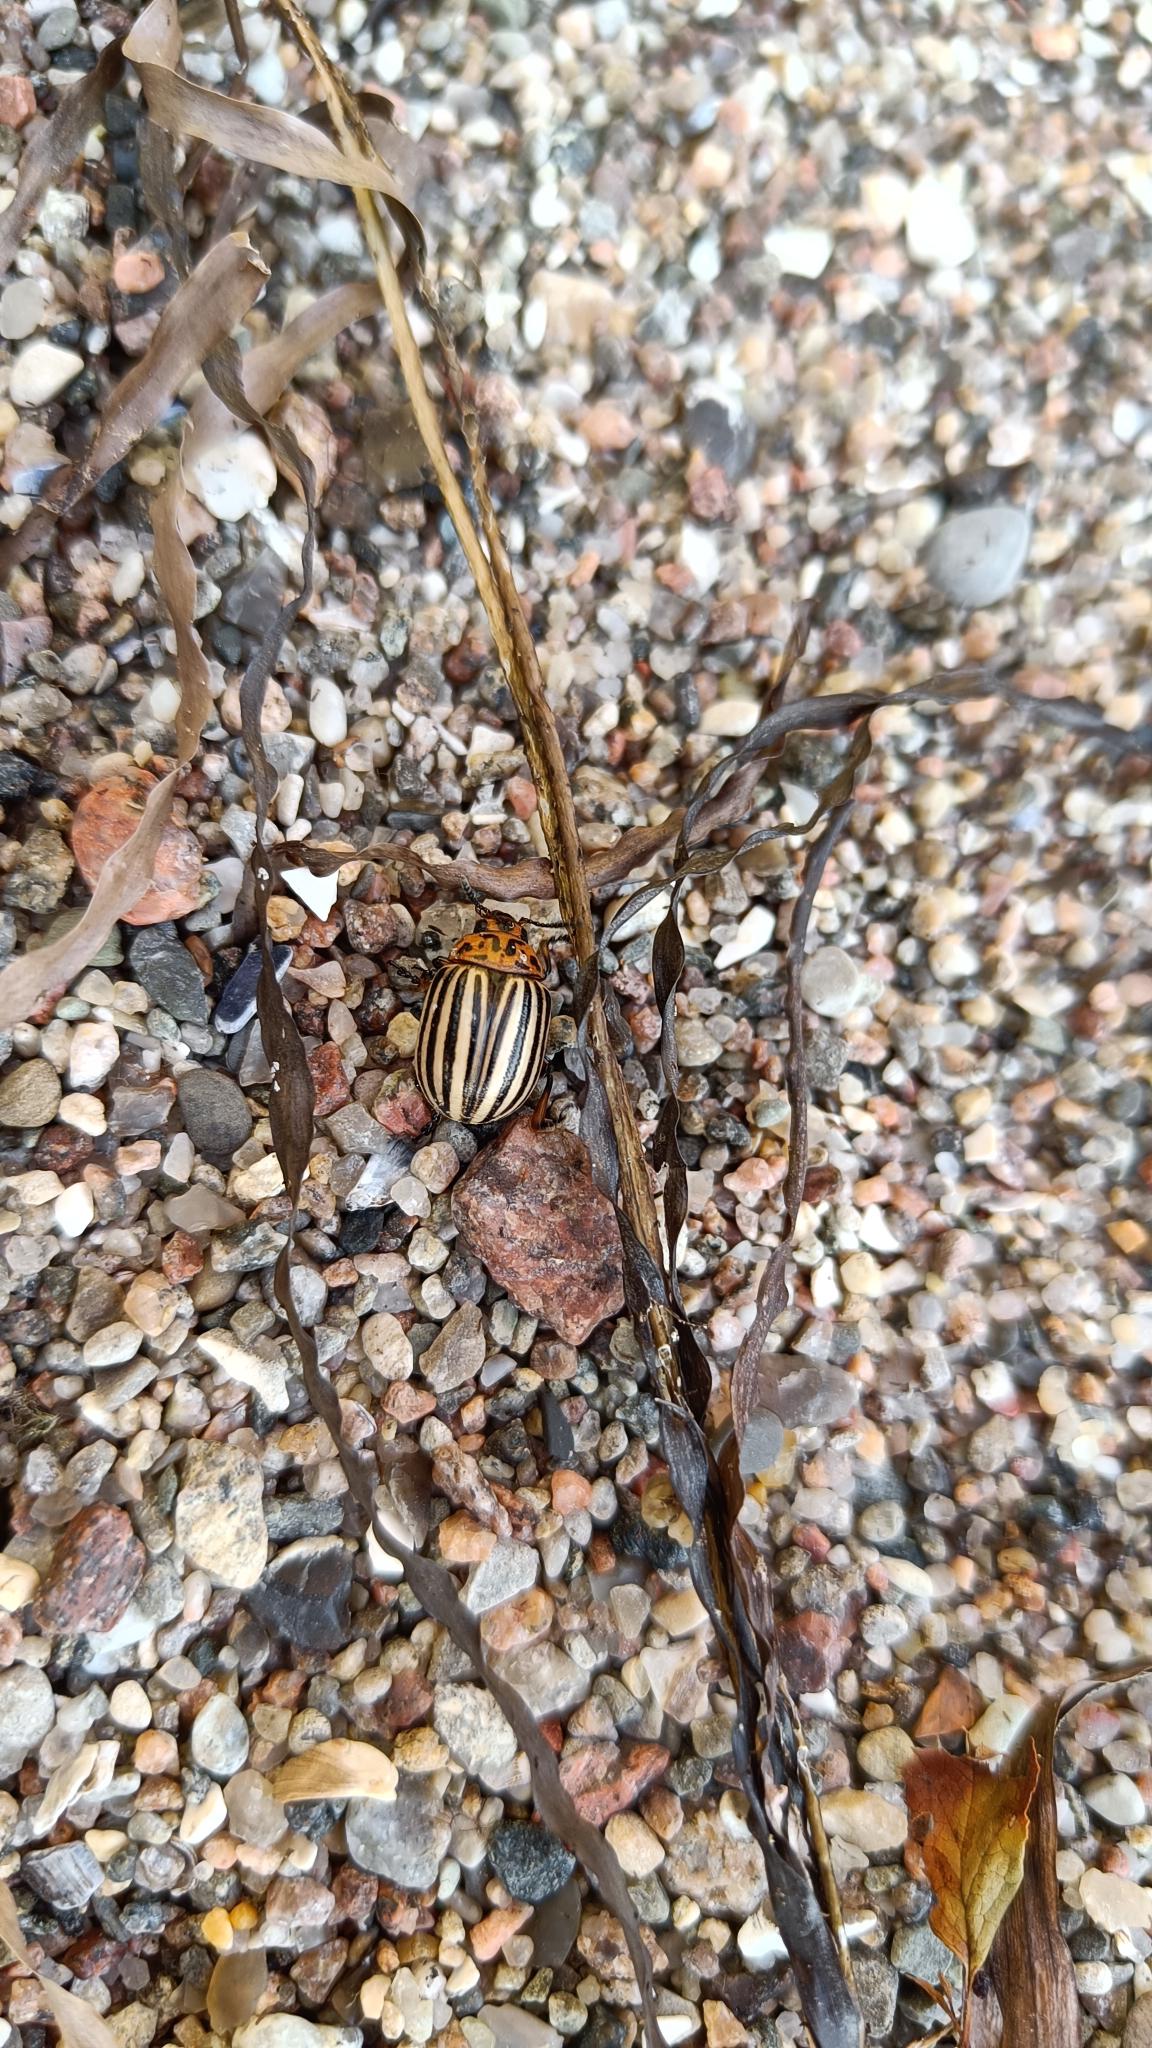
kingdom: Animalia
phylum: Arthropoda
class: Insecta
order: Coleoptera
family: Chrysomelidae
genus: Leptinotarsa
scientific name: Leptinotarsa decemlineata
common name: Coloradobille
